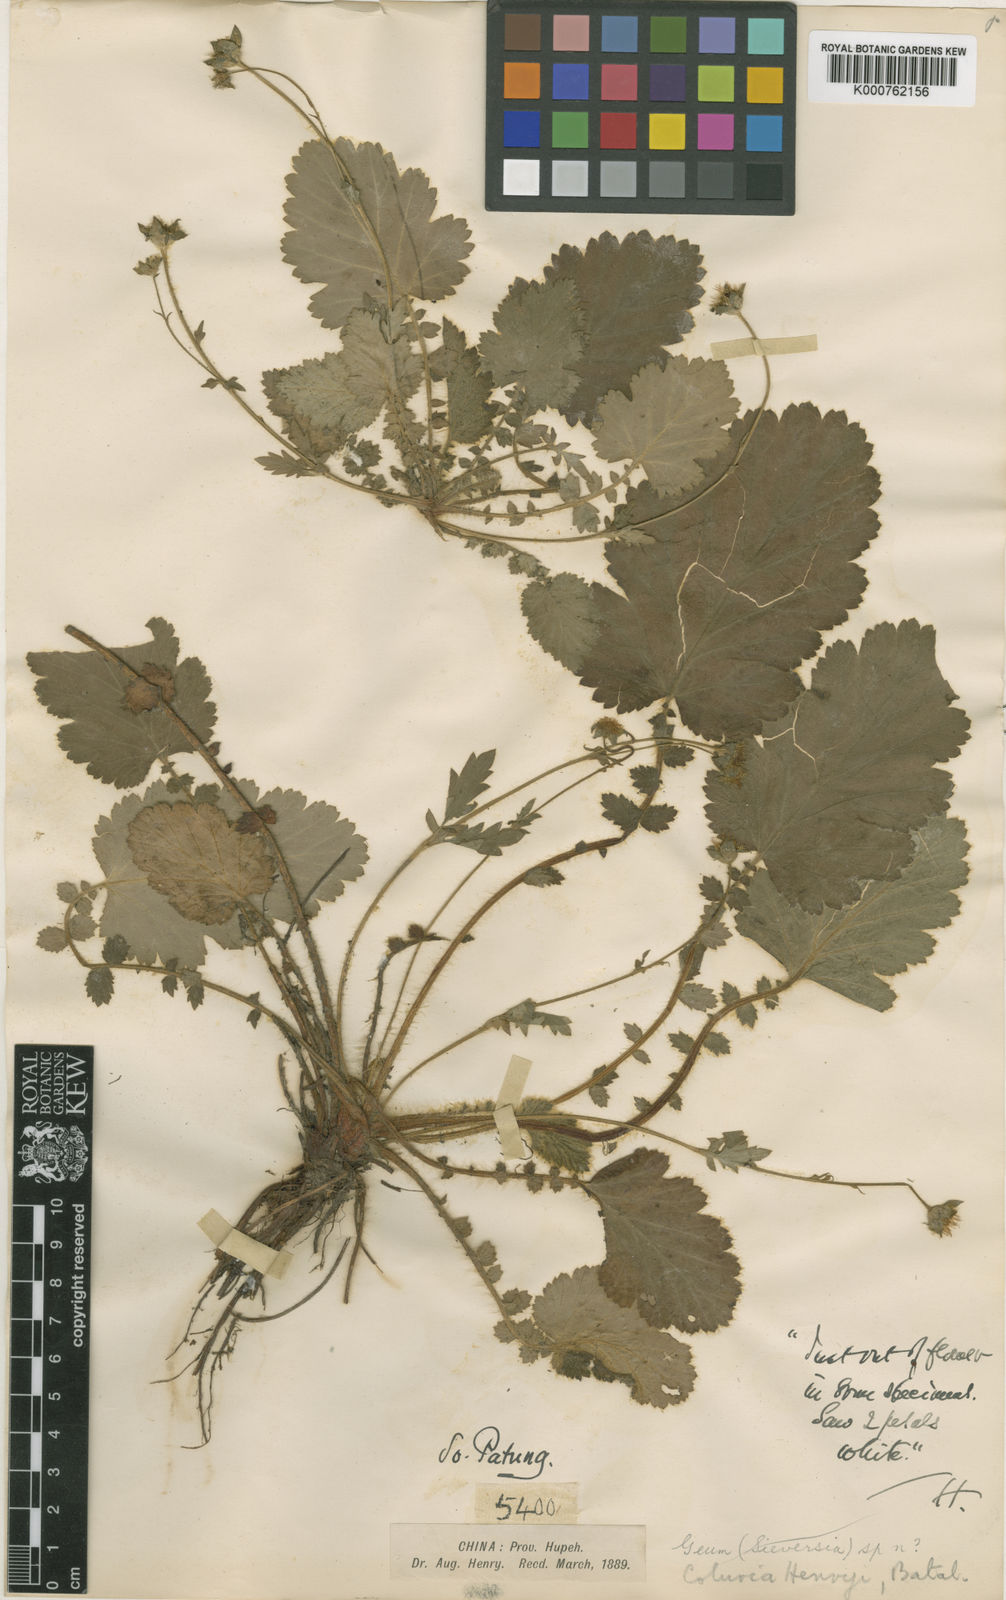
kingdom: Plantae
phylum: Tracheophyta
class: Magnoliopsida
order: Rosales
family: Rosaceae
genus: Geum
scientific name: Geum henryi
